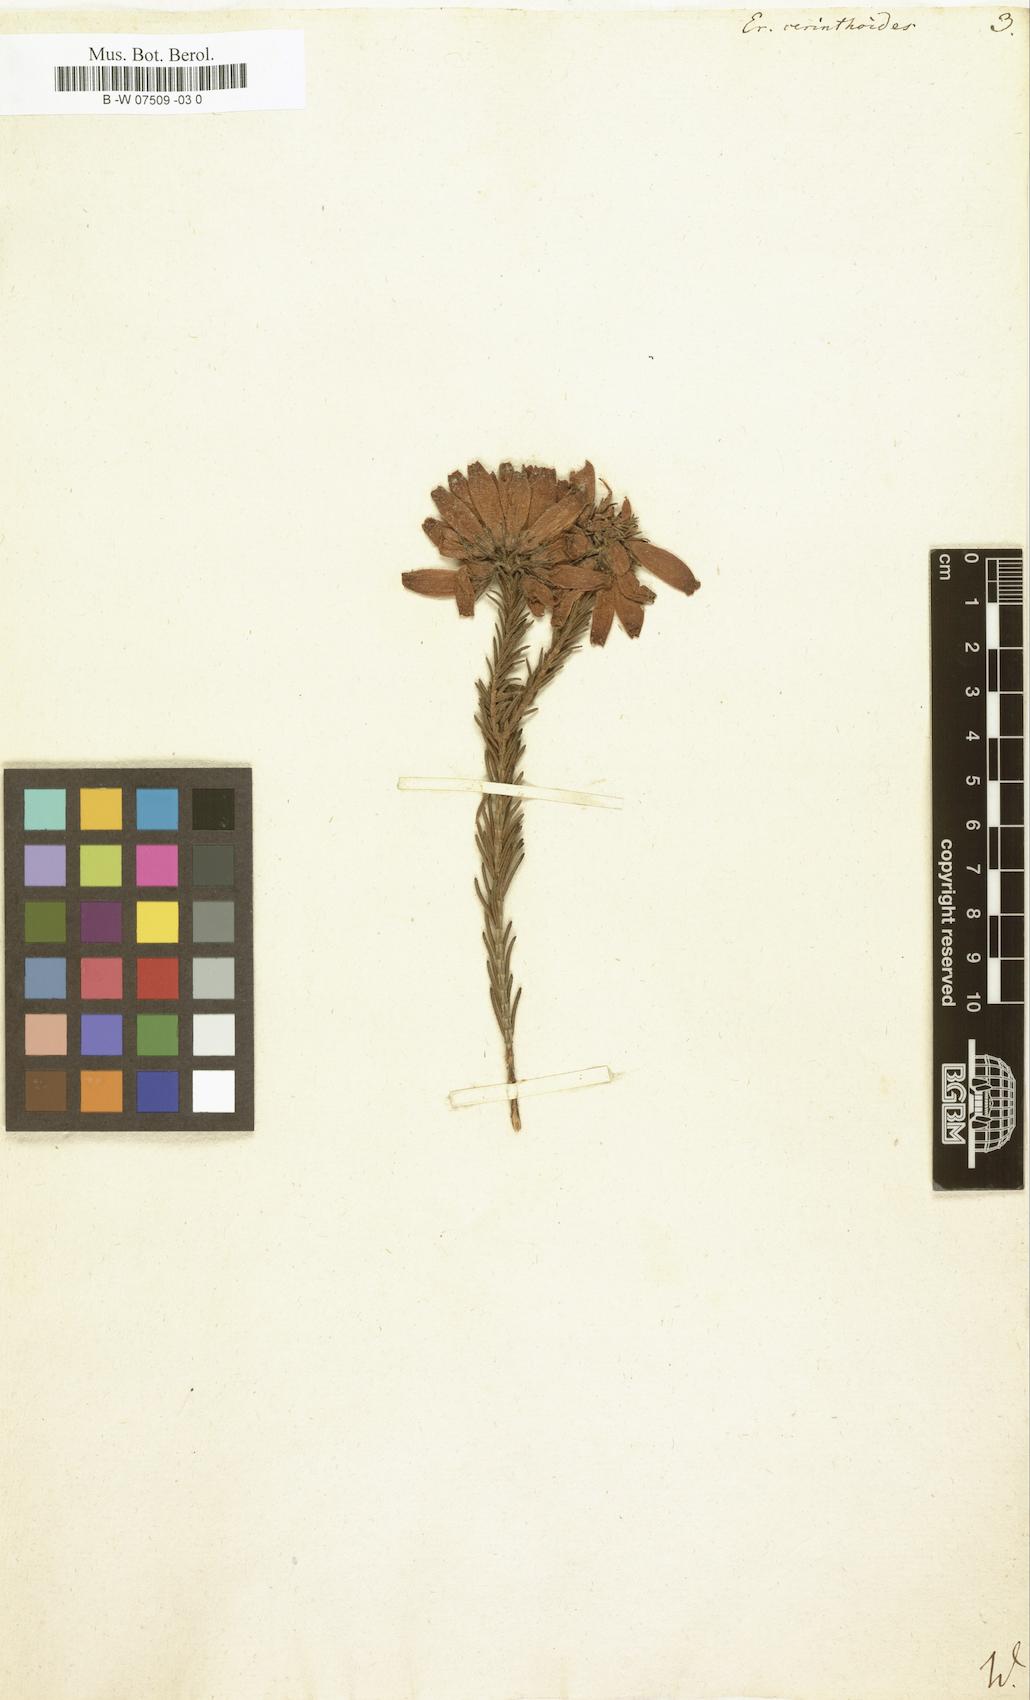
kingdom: Plantae
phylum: Tracheophyta
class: Magnoliopsida
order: Ericales
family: Ericaceae
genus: Erica
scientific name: Erica cerinthoides
